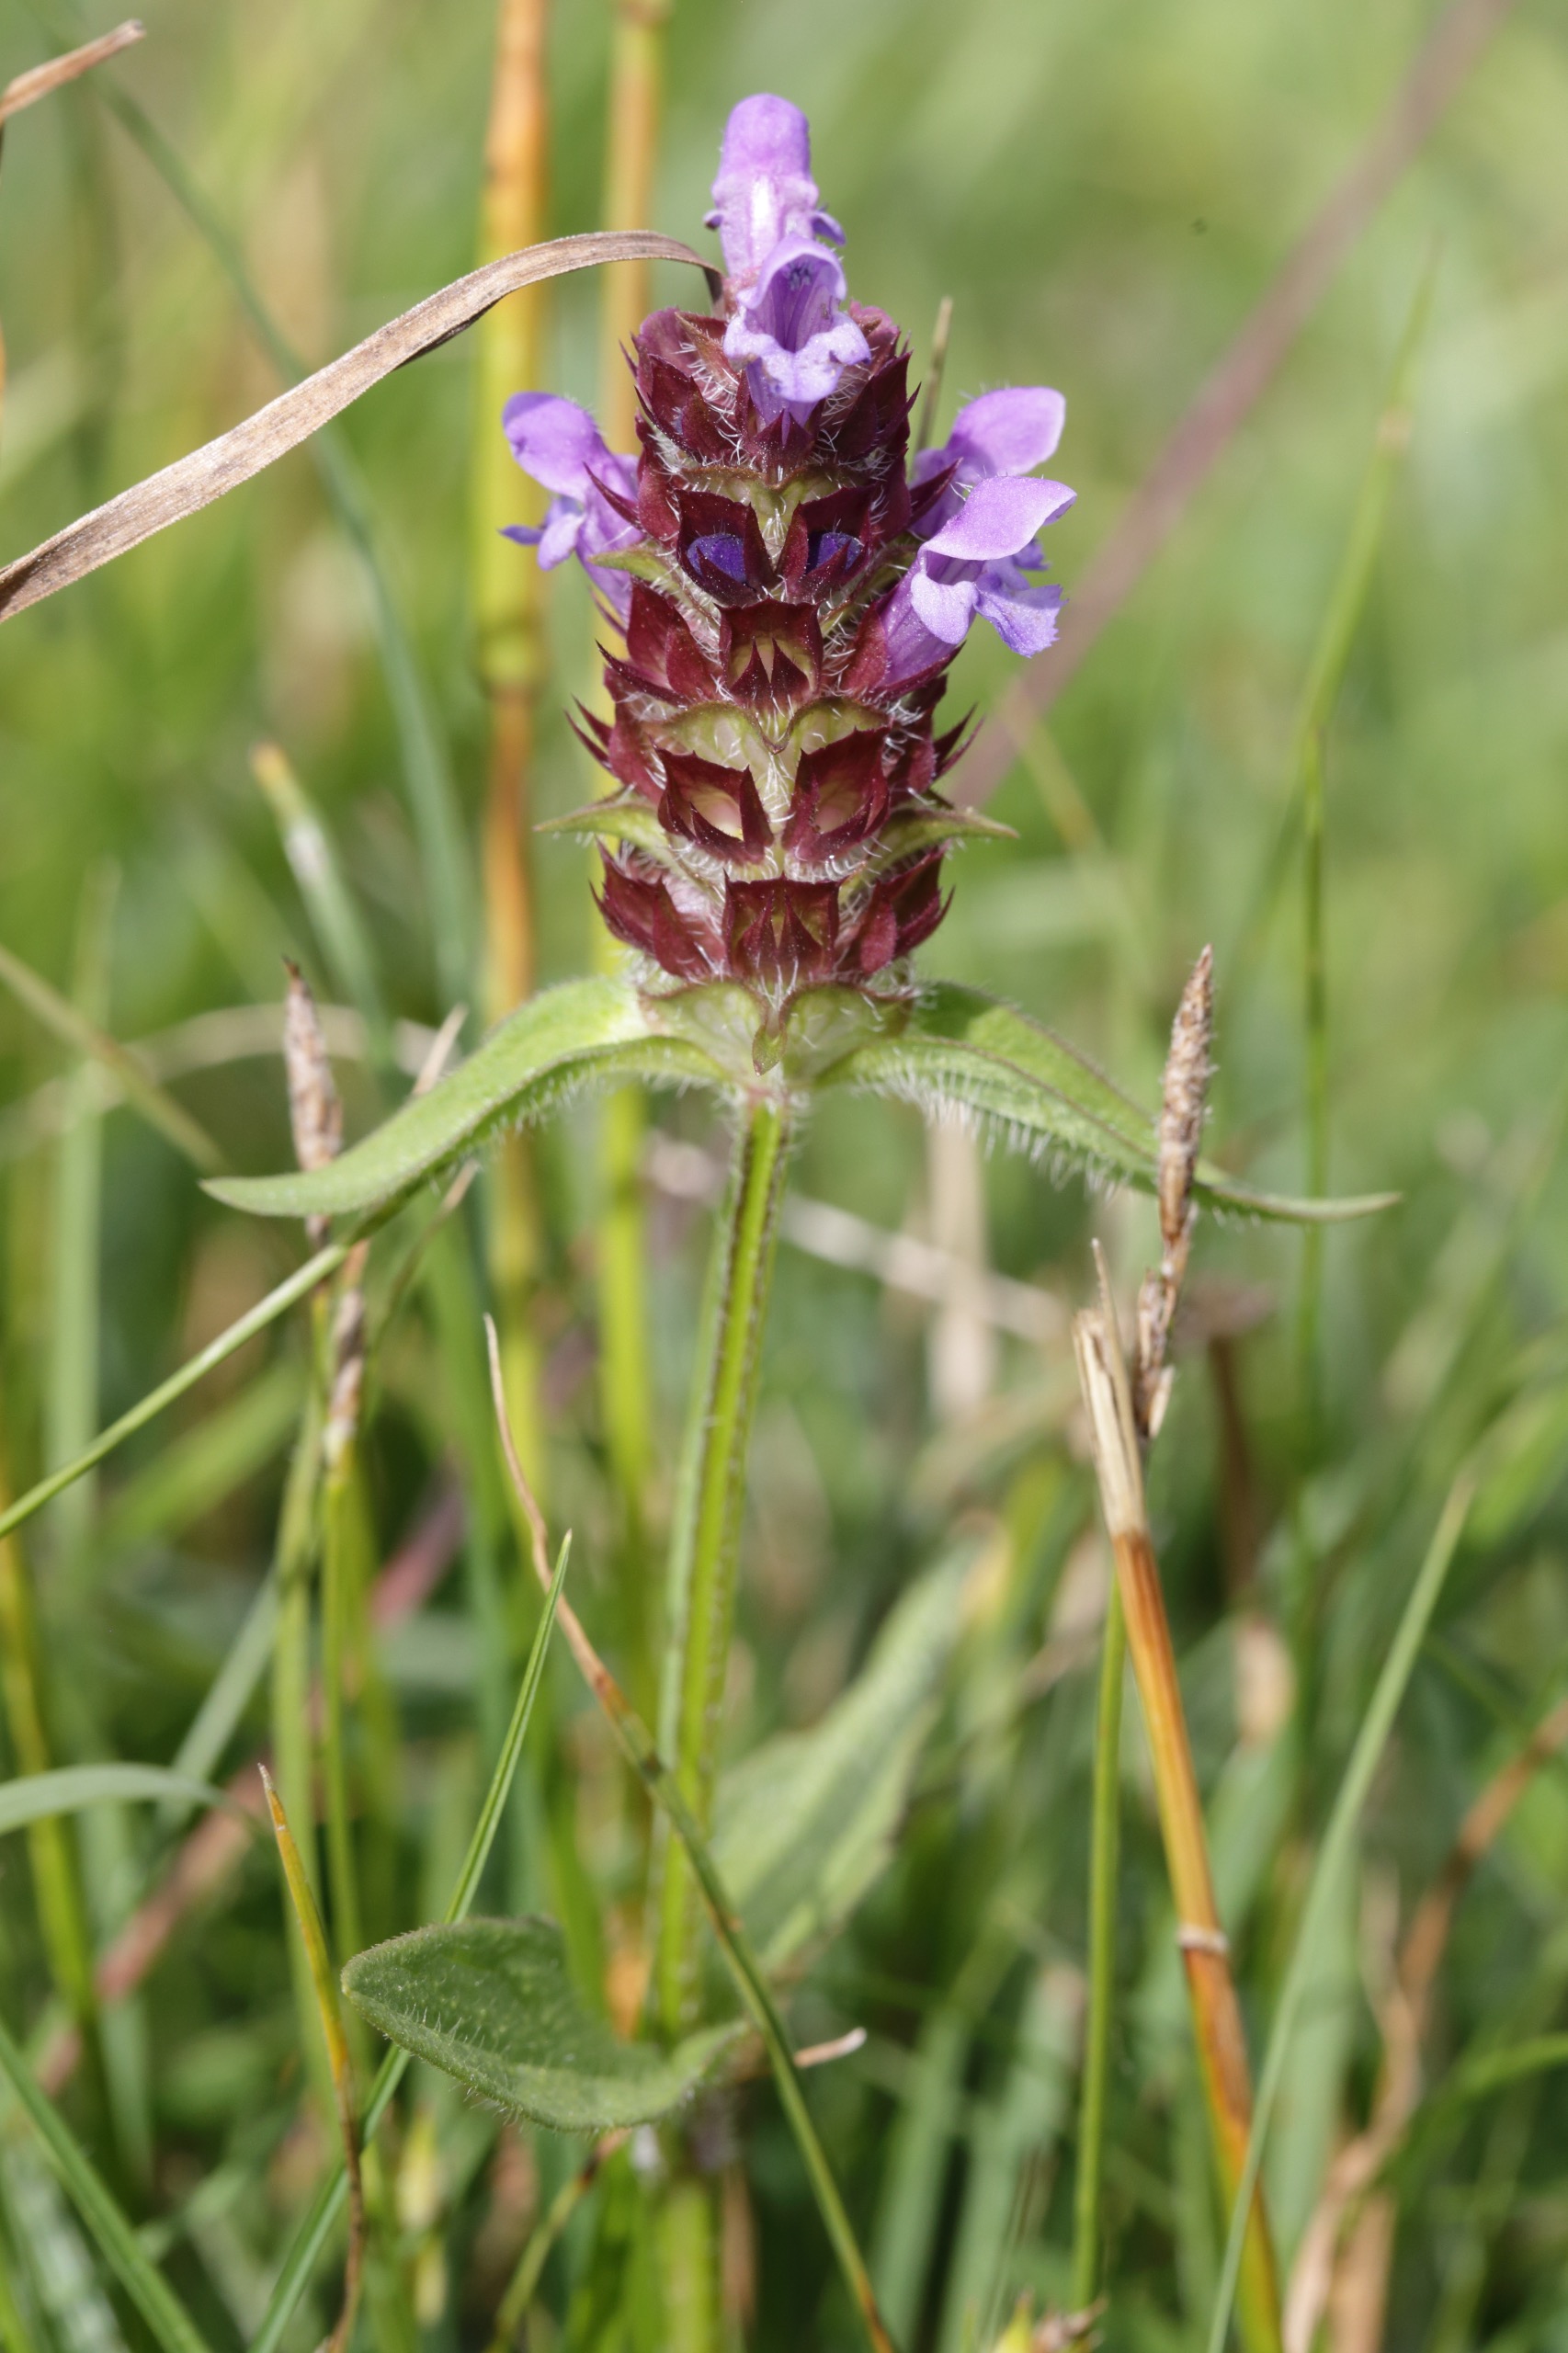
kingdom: Plantae
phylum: Tracheophyta
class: Magnoliopsida
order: Lamiales
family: Lamiaceae
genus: Prunella
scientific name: Prunella vulgaris
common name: Almindelig brunelle
